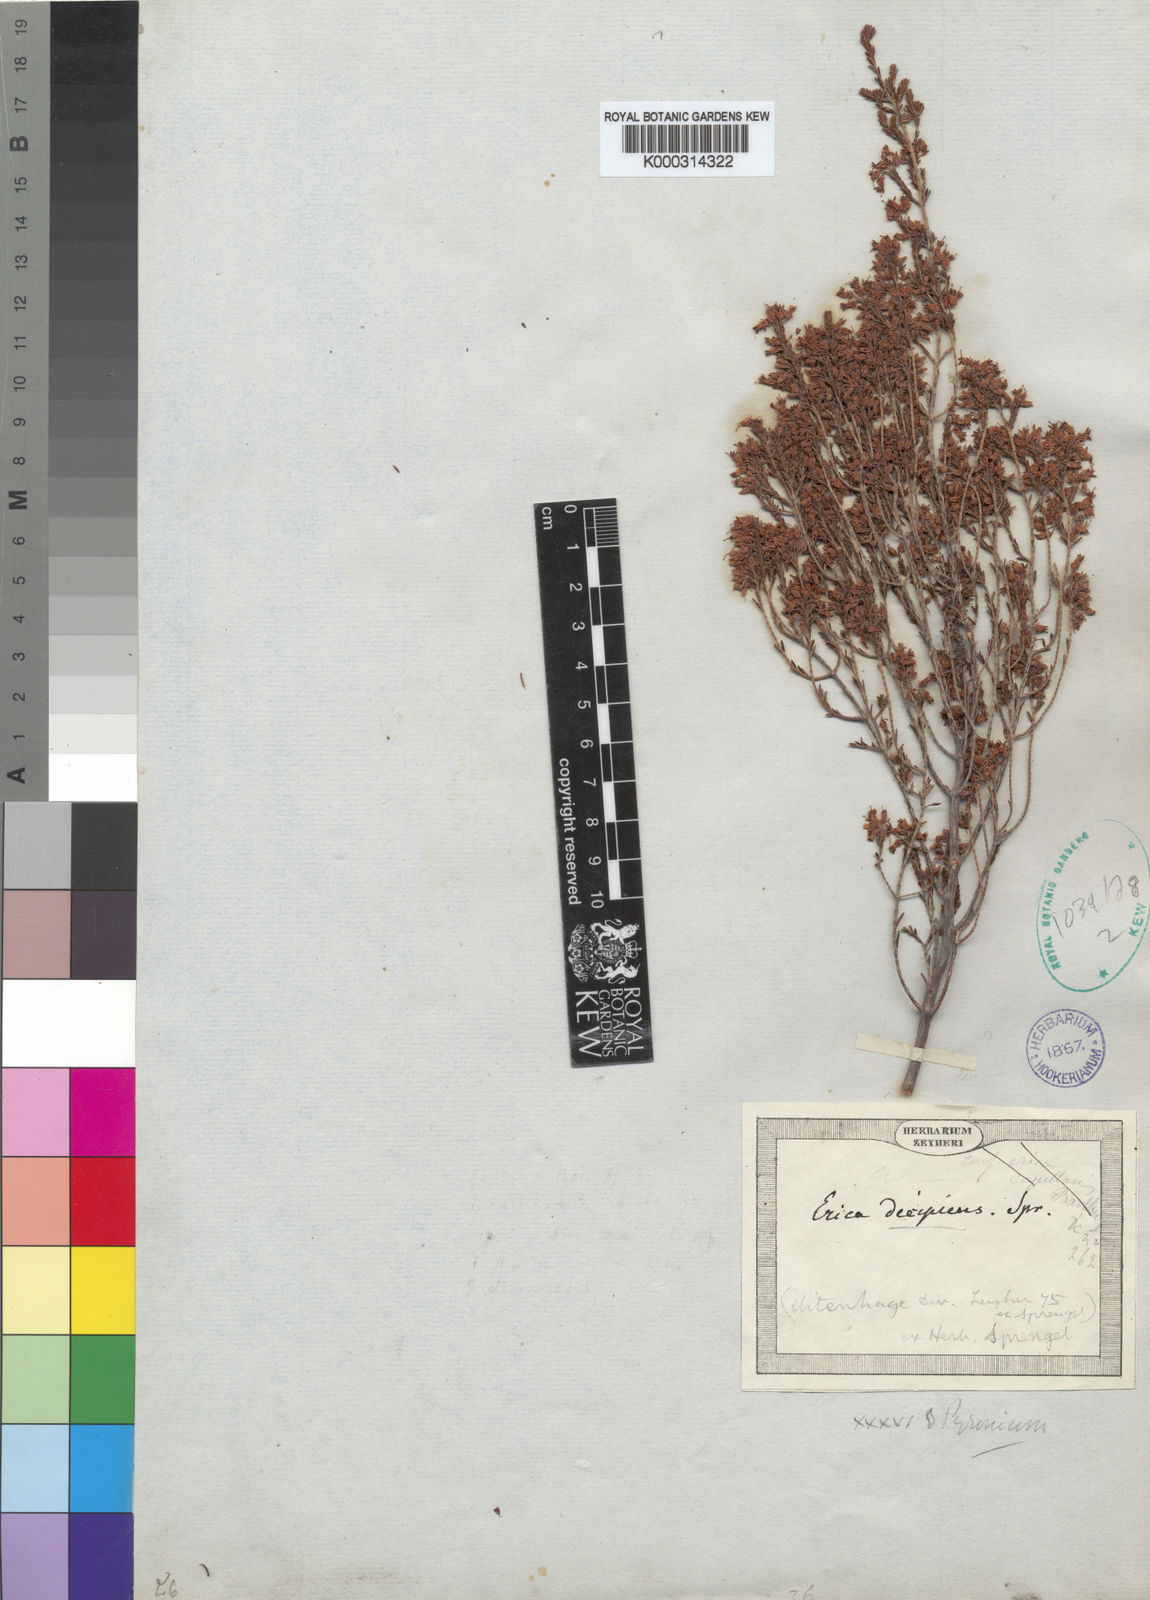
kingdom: Plantae
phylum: Tracheophyta
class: Magnoliopsida
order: Ericales
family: Ericaceae
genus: Erica
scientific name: Erica trivialis
